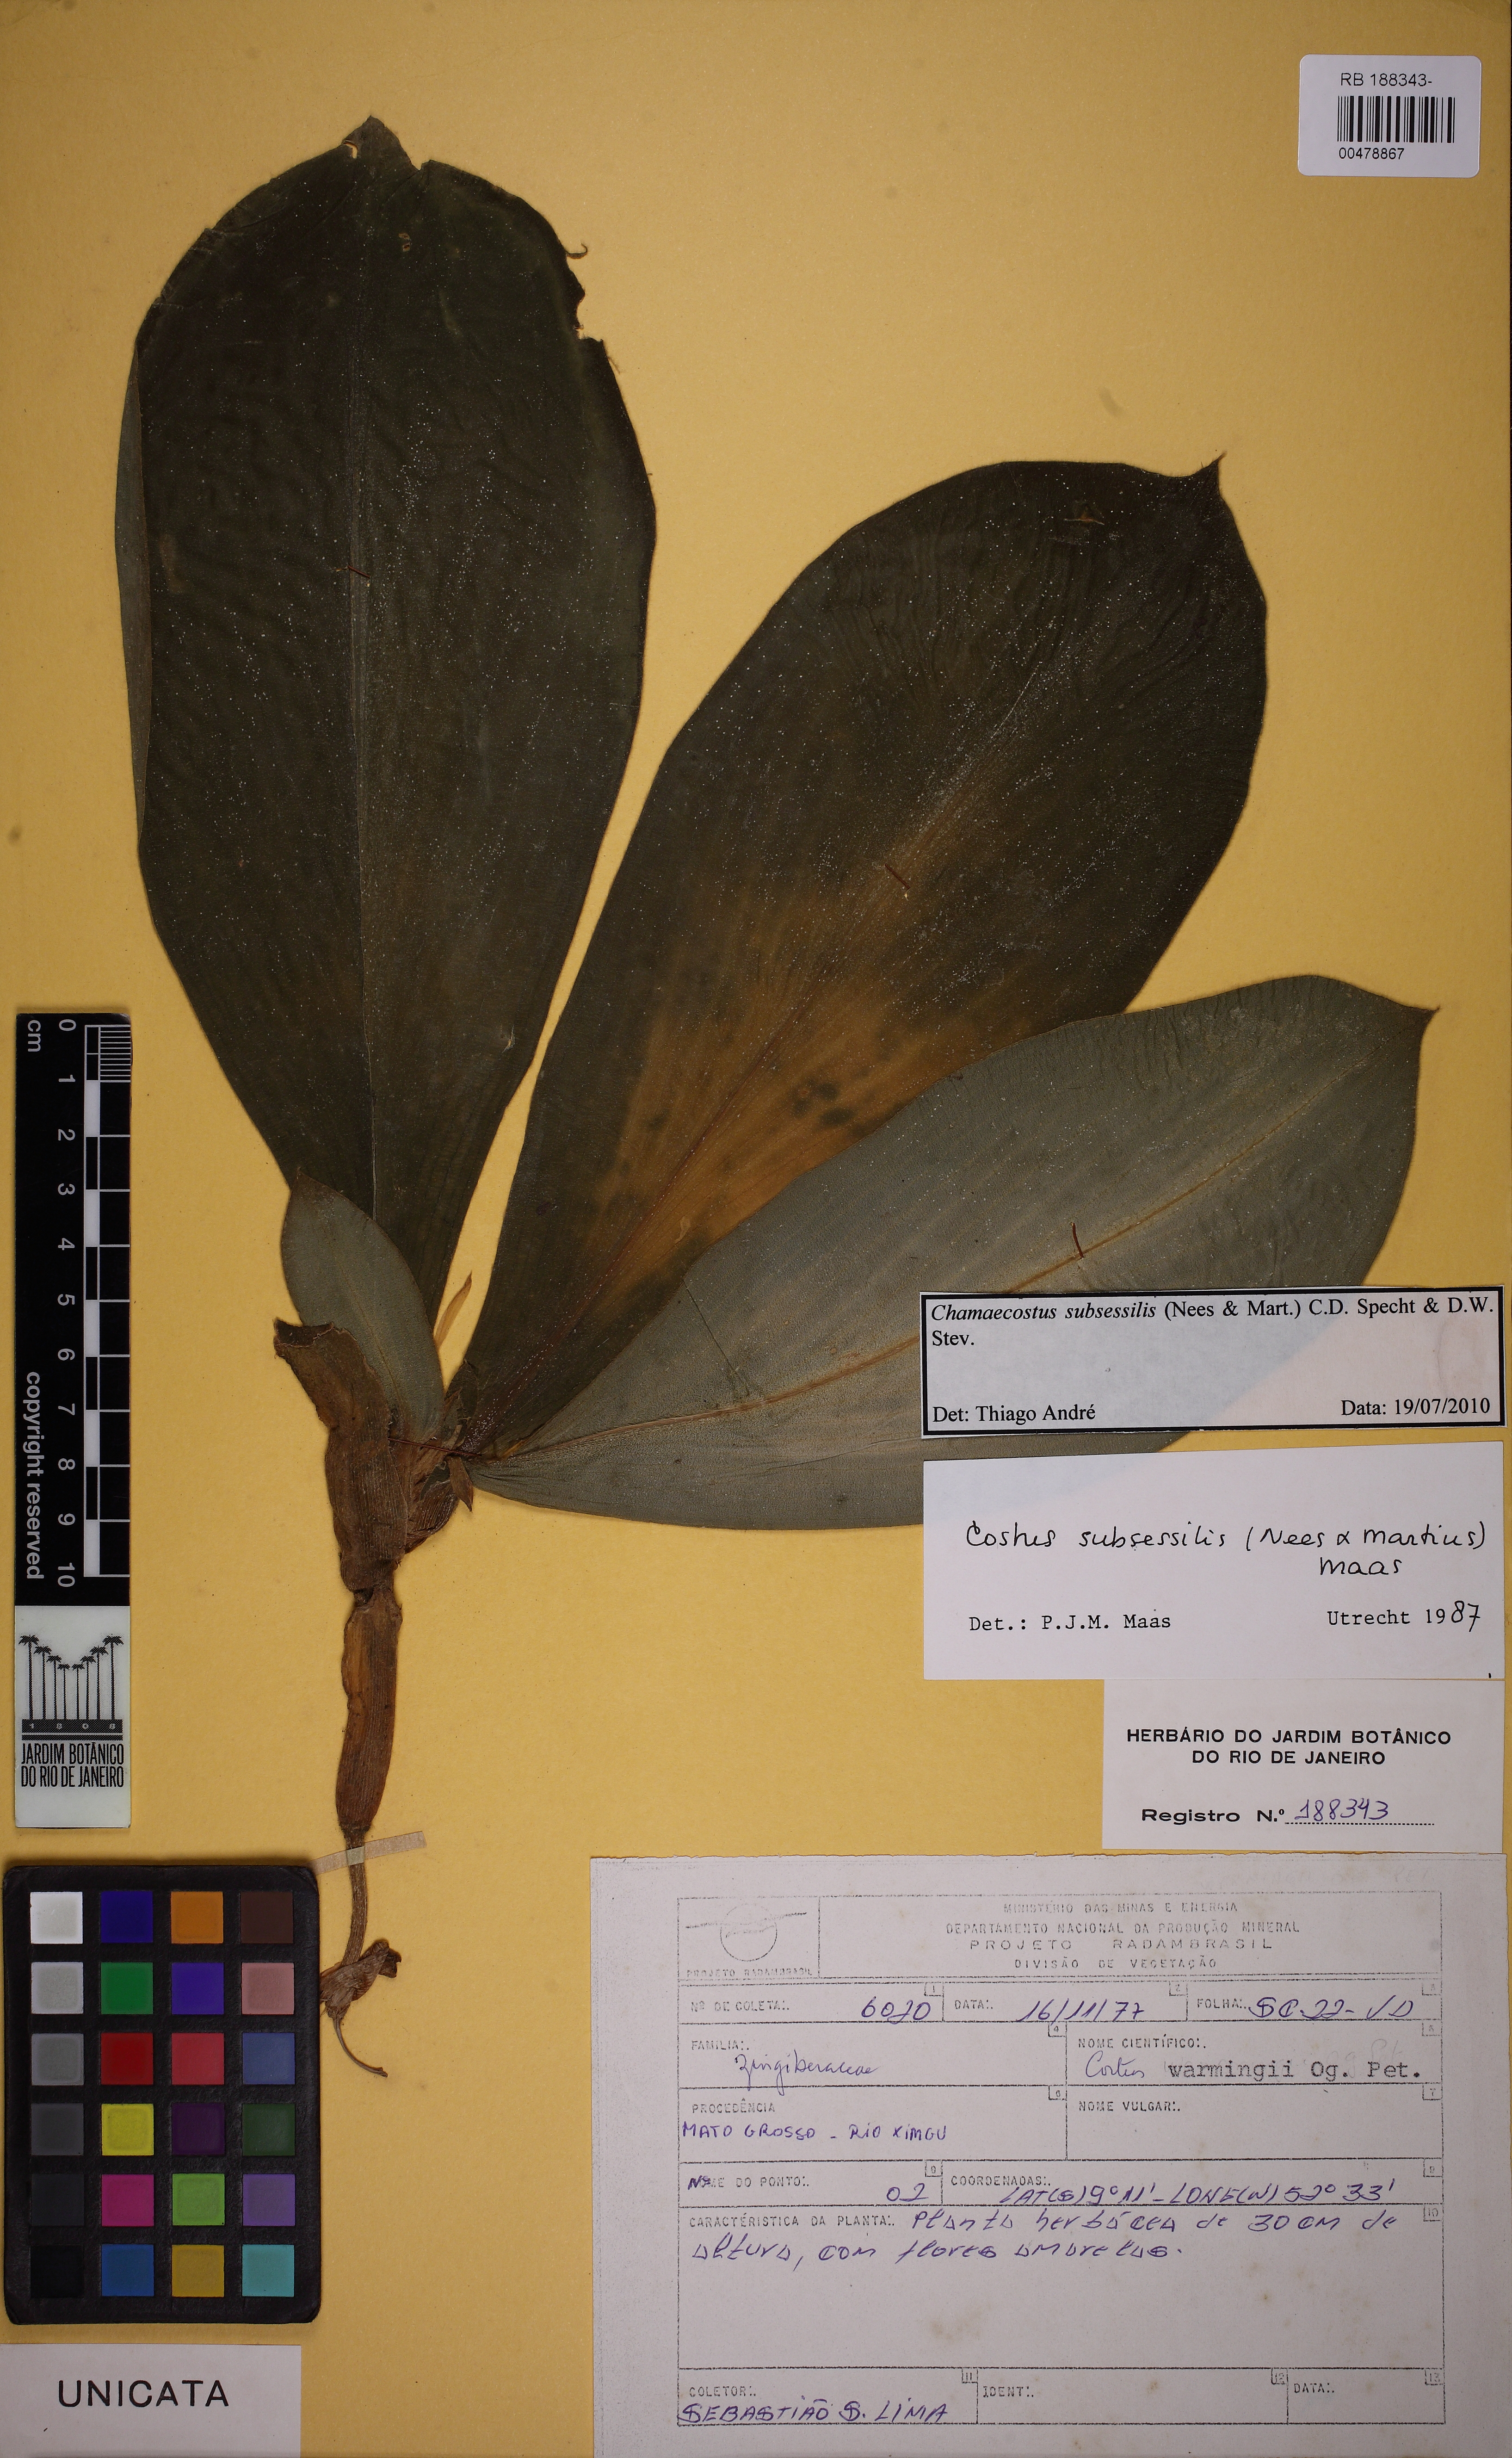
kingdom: Plantae
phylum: Tracheophyta
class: Liliopsida
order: Zingiberales
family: Costaceae
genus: Chamaecostus
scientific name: Chamaecostus acaulis
